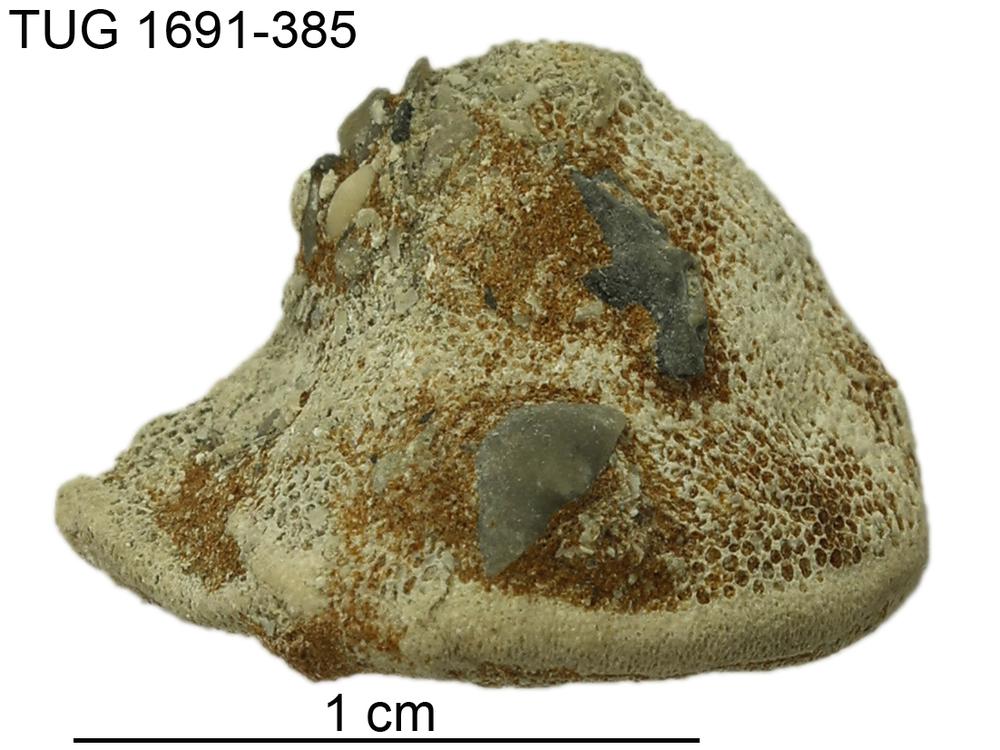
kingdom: Animalia
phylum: Bryozoa
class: Stenolaemata
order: Trepostomatida
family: Diplotrypidae
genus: Diplotrypa
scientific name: Diplotrypa
